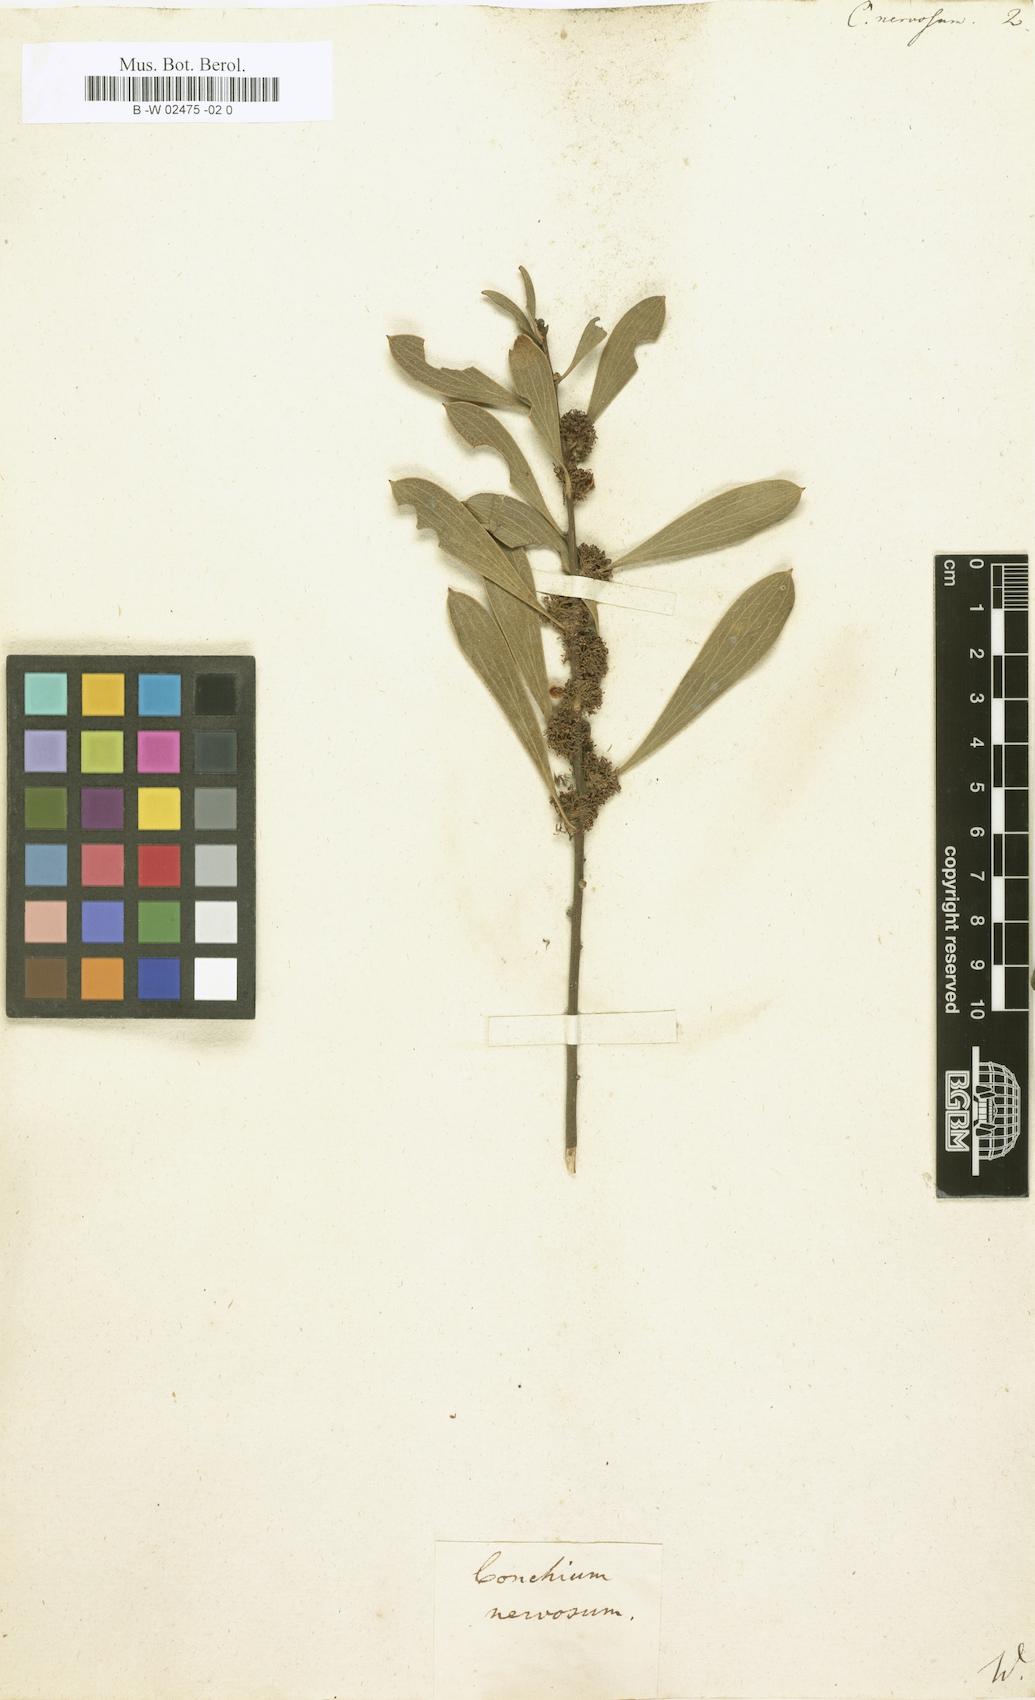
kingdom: Plantae
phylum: Tracheophyta
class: Magnoliopsida
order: Proteales
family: Proteaceae
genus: Hakea
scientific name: Hakea dactyloides
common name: Finger hakea
